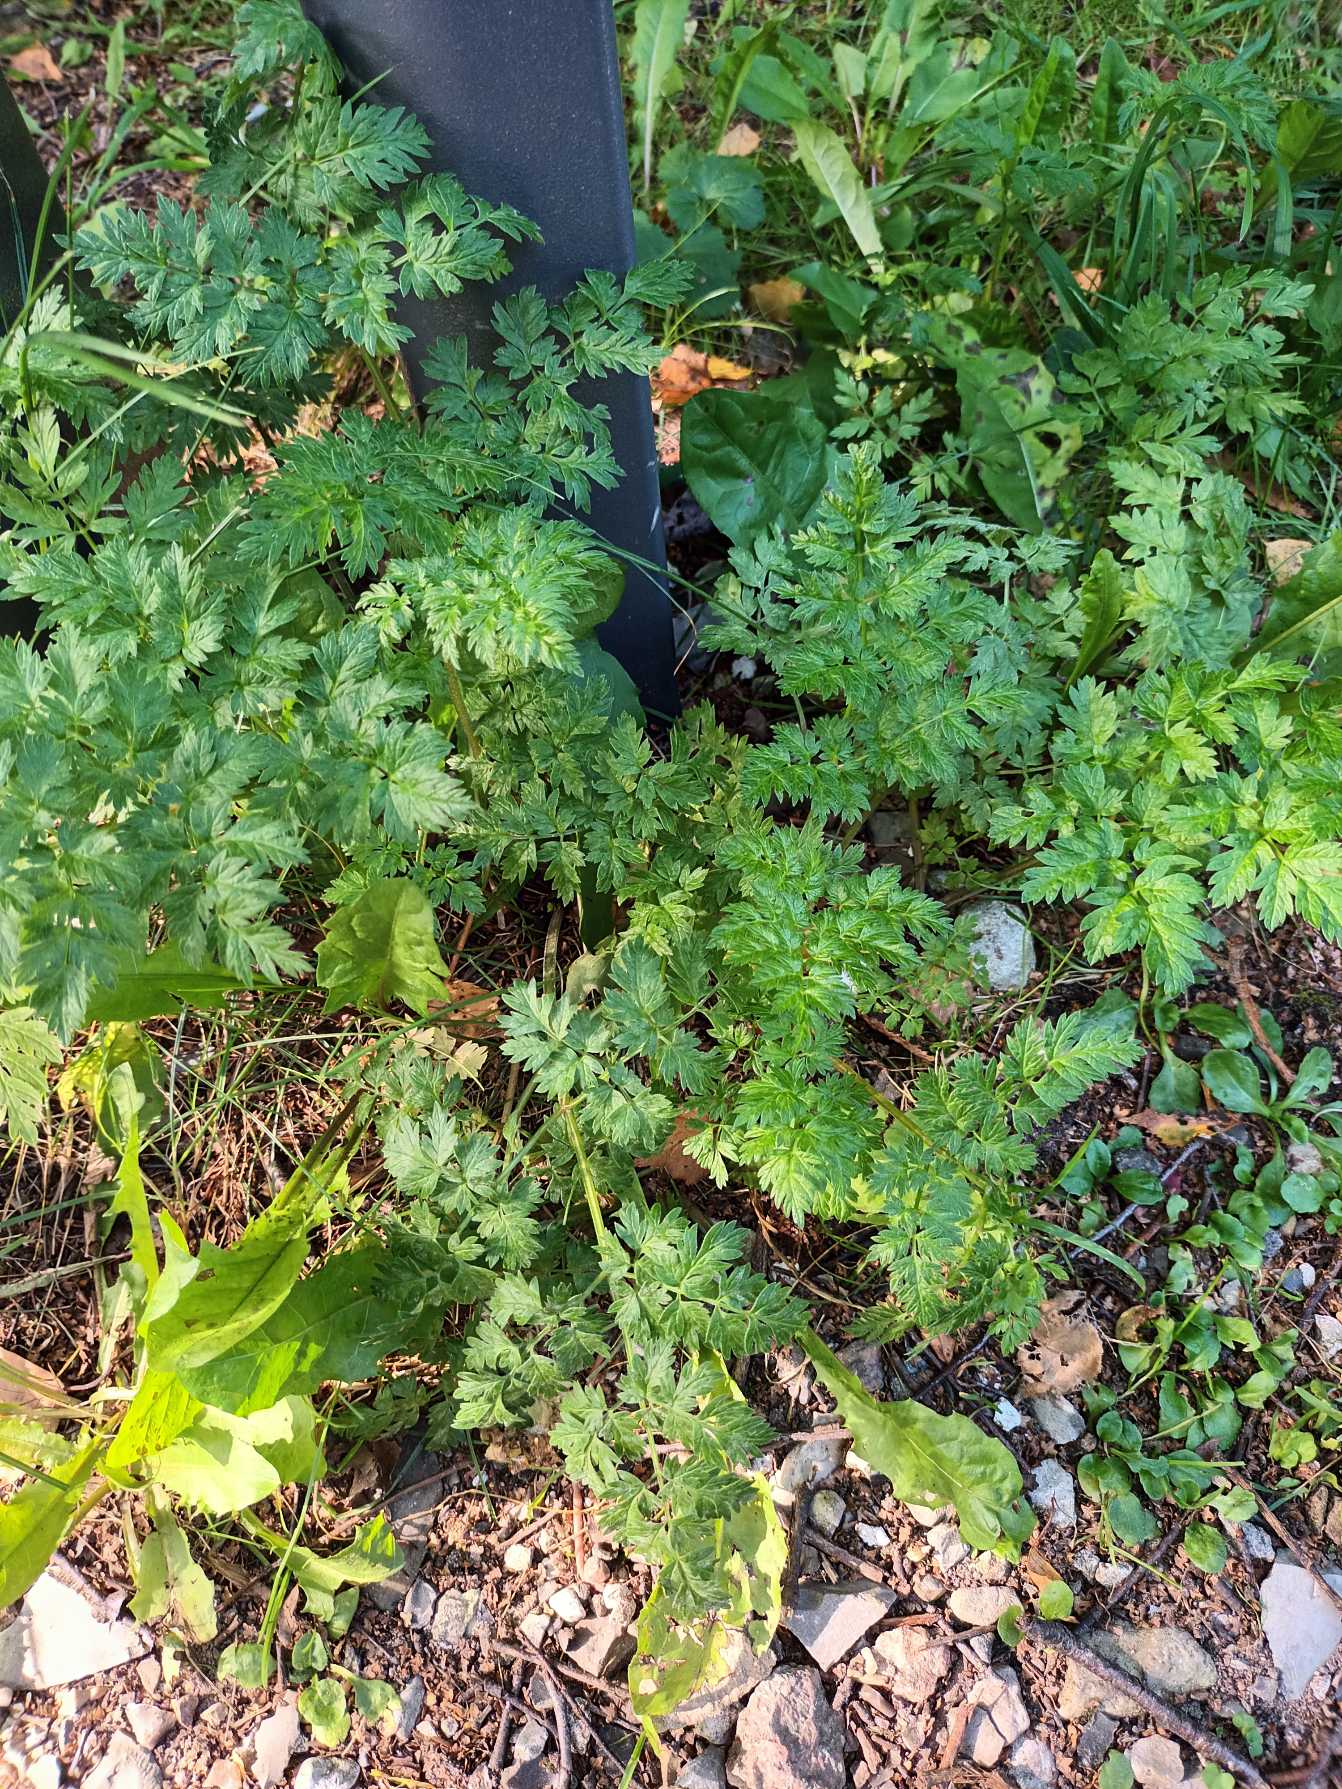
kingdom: Plantae
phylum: Tracheophyta
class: Magnoliopsida
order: Apiales
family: Apiaceae
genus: Anthriscus
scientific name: Anthriscus sylvestris
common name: Vild kørvel
